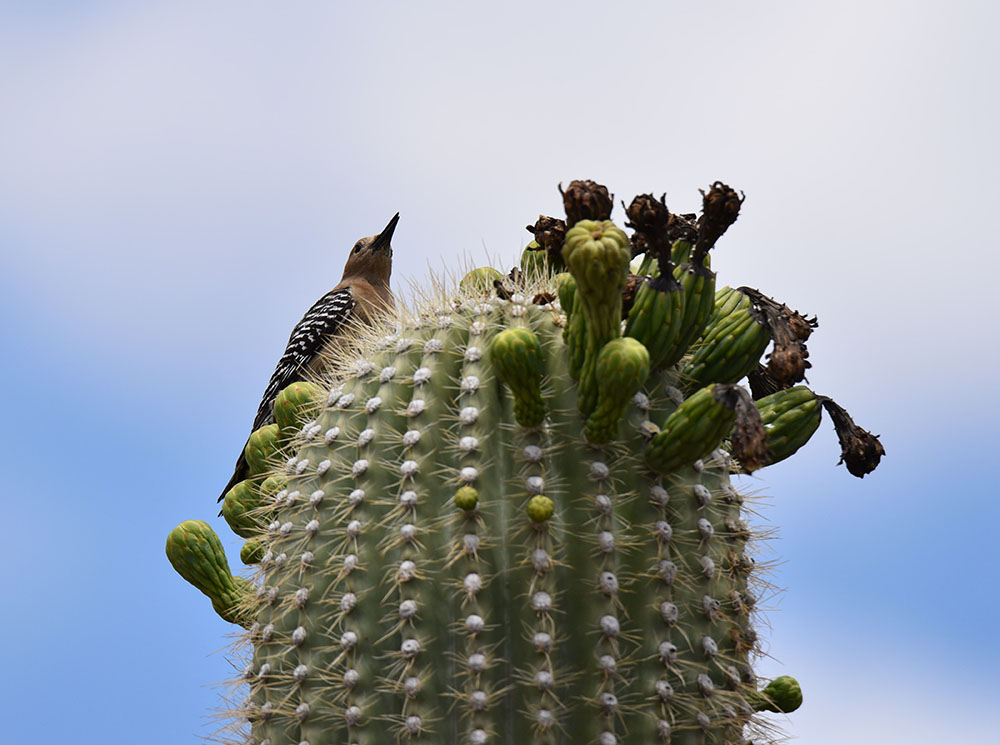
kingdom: Animalia
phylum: Chordata
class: Aves
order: Piciformes
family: Picidae
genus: Melanerpes
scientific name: Melanerpes uropygialis
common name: Gila woodpecker
